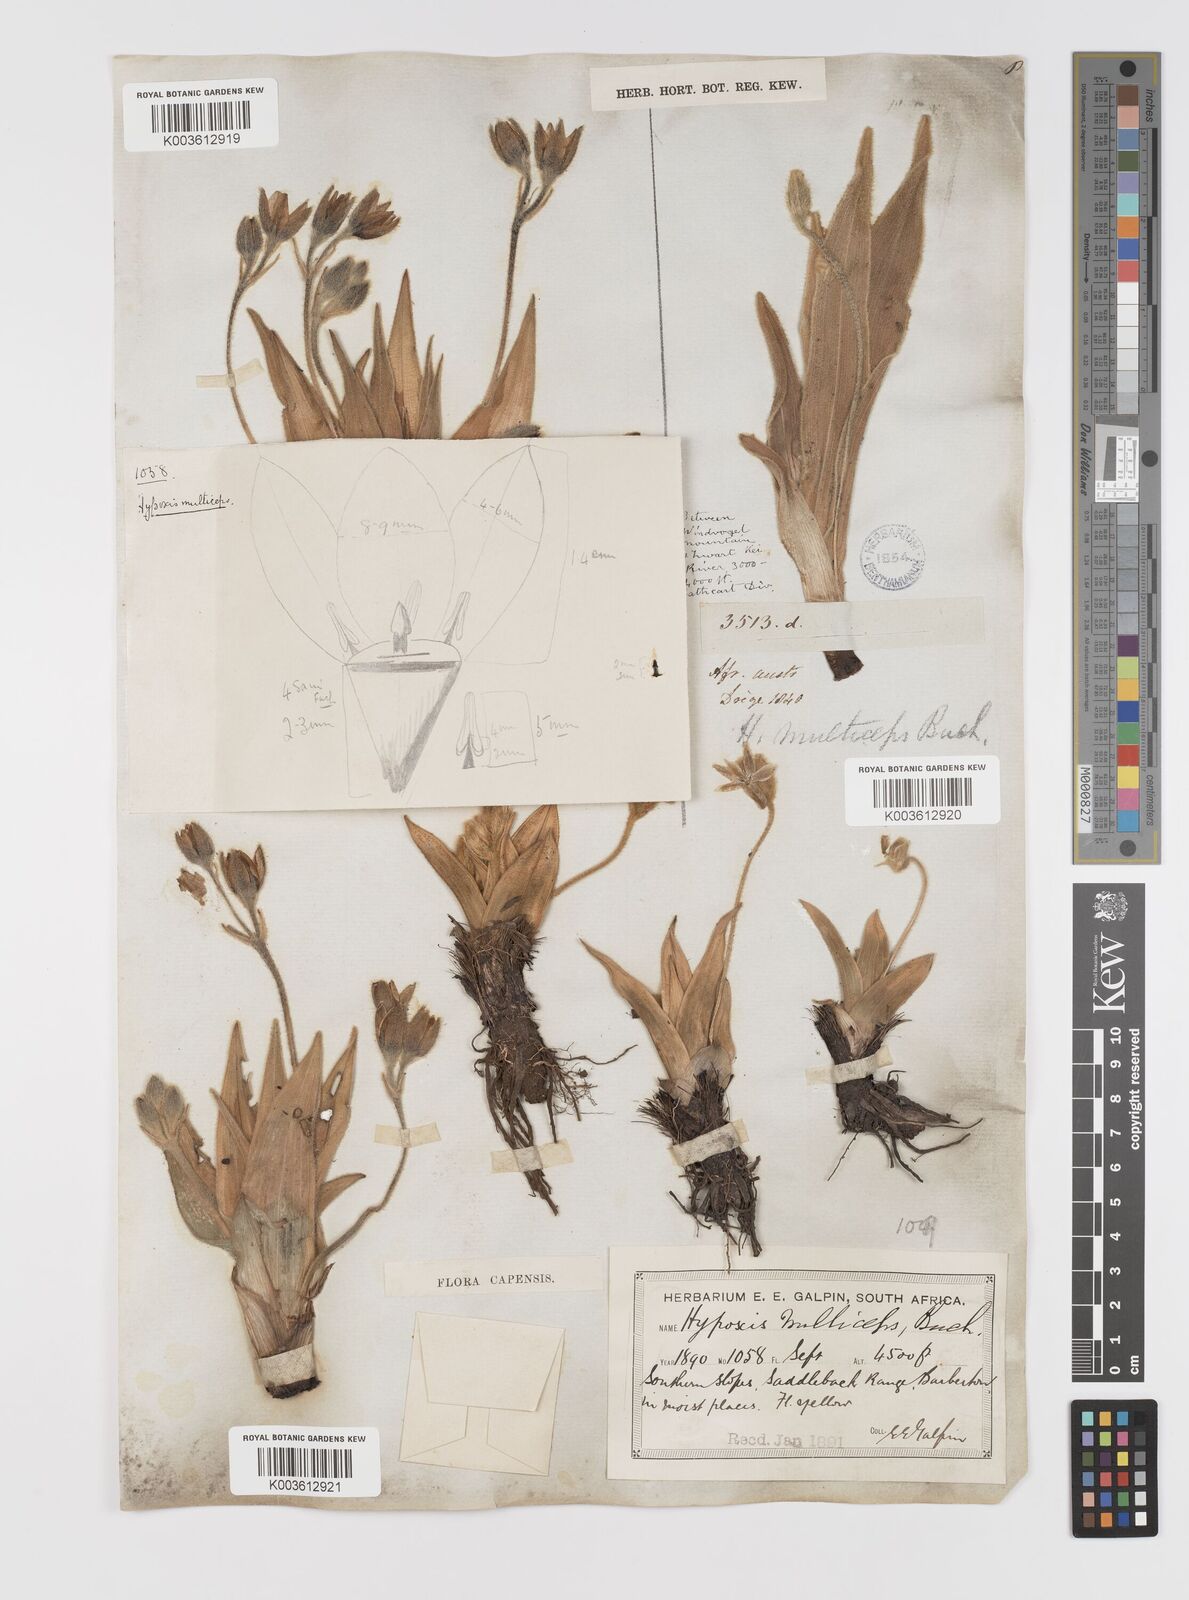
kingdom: Plantae
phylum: Tracheophyta
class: Liliopsida
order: Asparagales
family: Hypoxidaceae
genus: Hypoxis
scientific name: Hypoxis multiceps
